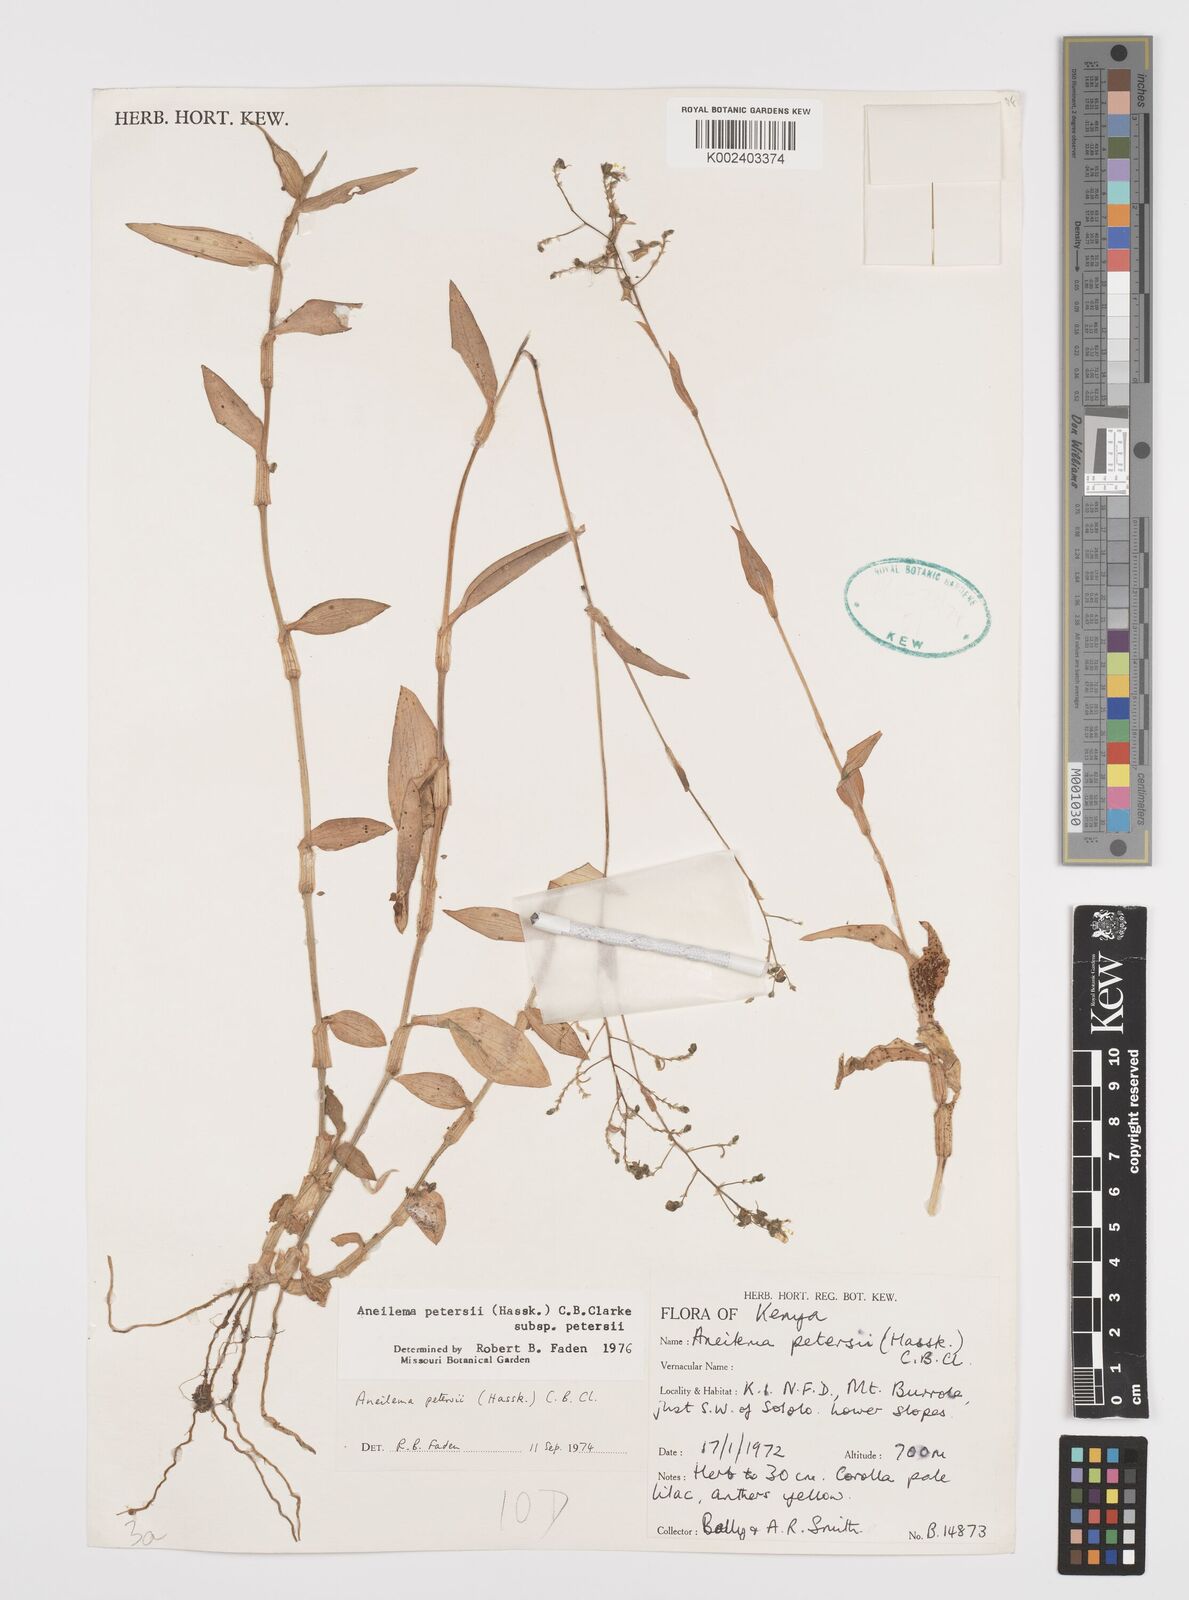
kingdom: Plantae
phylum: Tracheophyta
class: Liliopsida
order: Commelinales
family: Commelinaceae
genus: Aneilema
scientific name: Aneilema petersii
